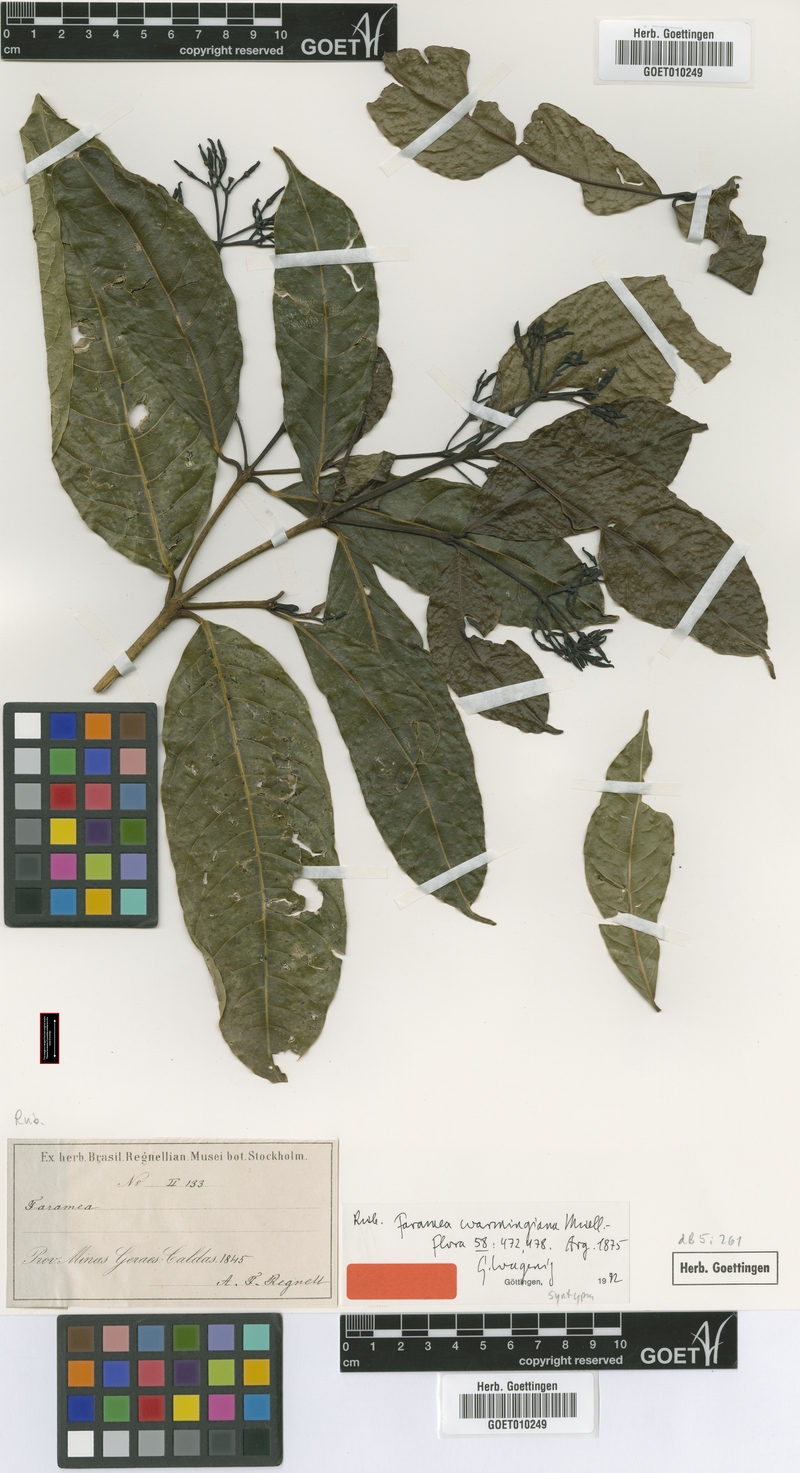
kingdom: Plantae
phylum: Tracheophyta
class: Magnoliopsida
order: Gentianales
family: Rubiaceae
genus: Faramea
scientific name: Faramea occidentalis
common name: False coffee
